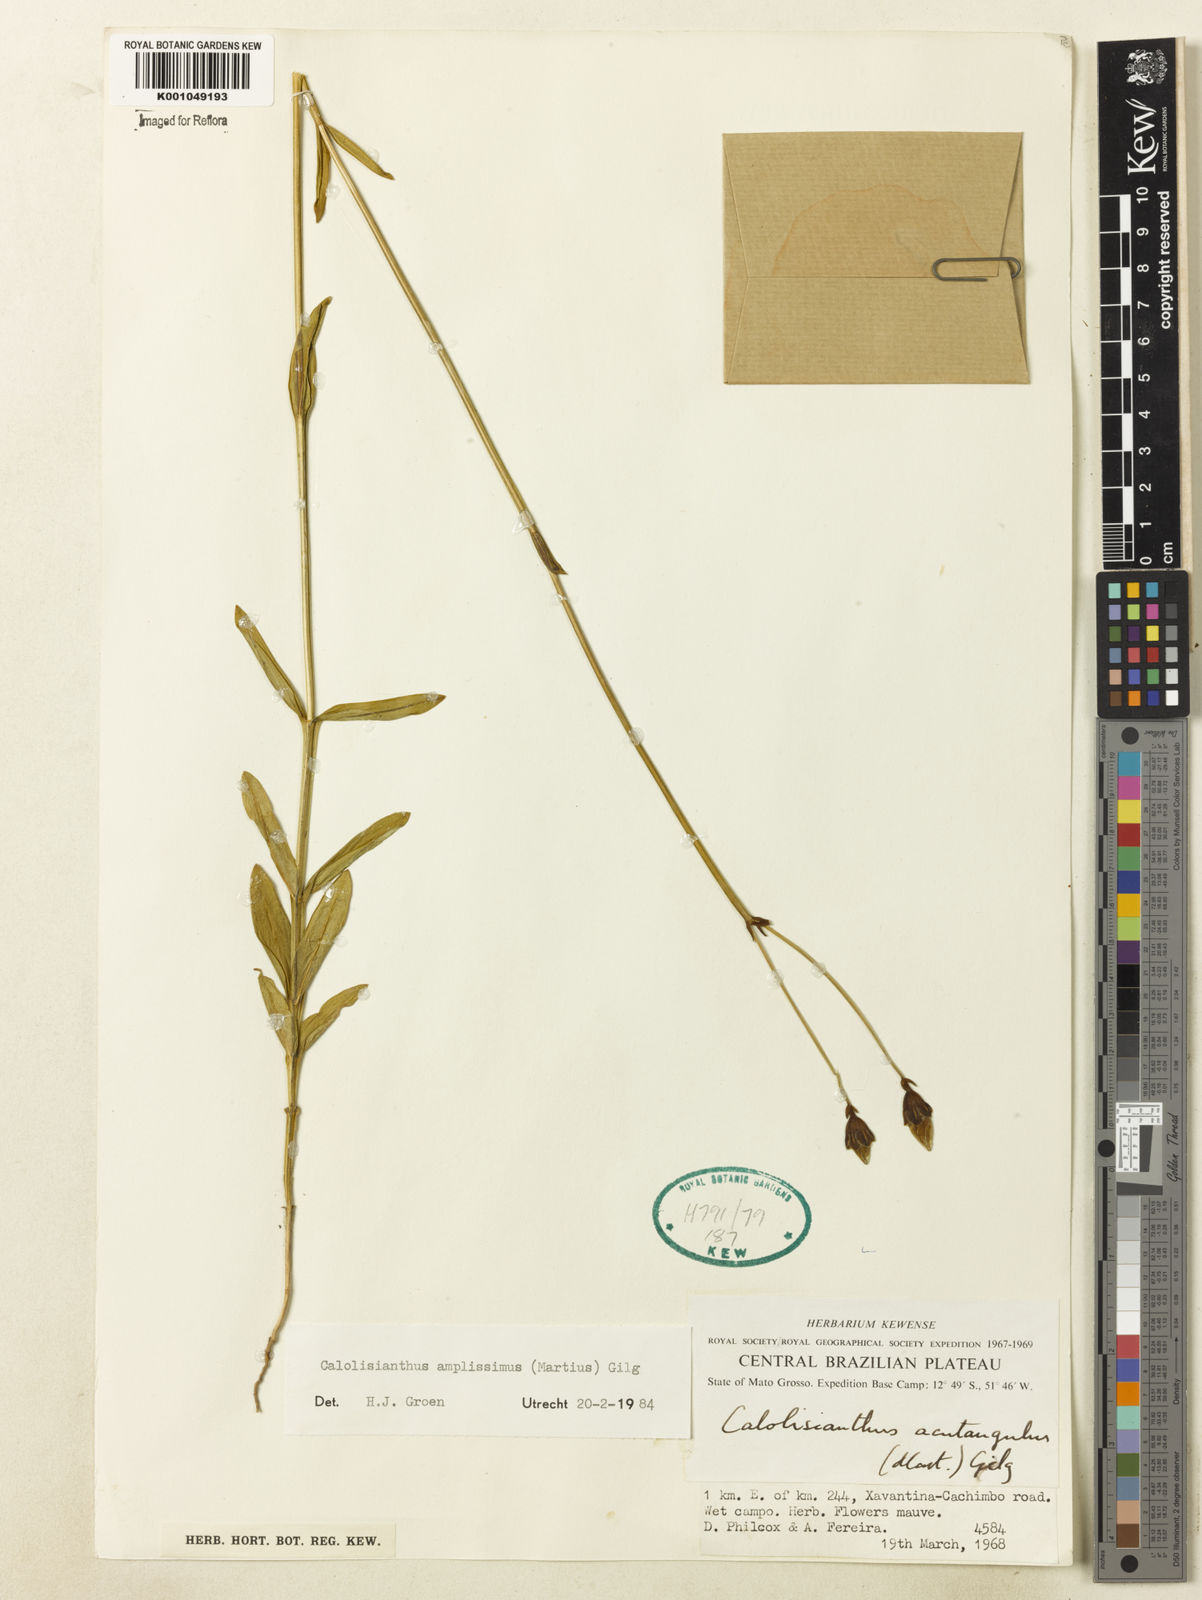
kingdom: Plantae
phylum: Tracheophyta
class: Magnoliopsida
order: Gentianales
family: Gentianaceae
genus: Calolisianthus
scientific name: Calolisianthus amplissimus
